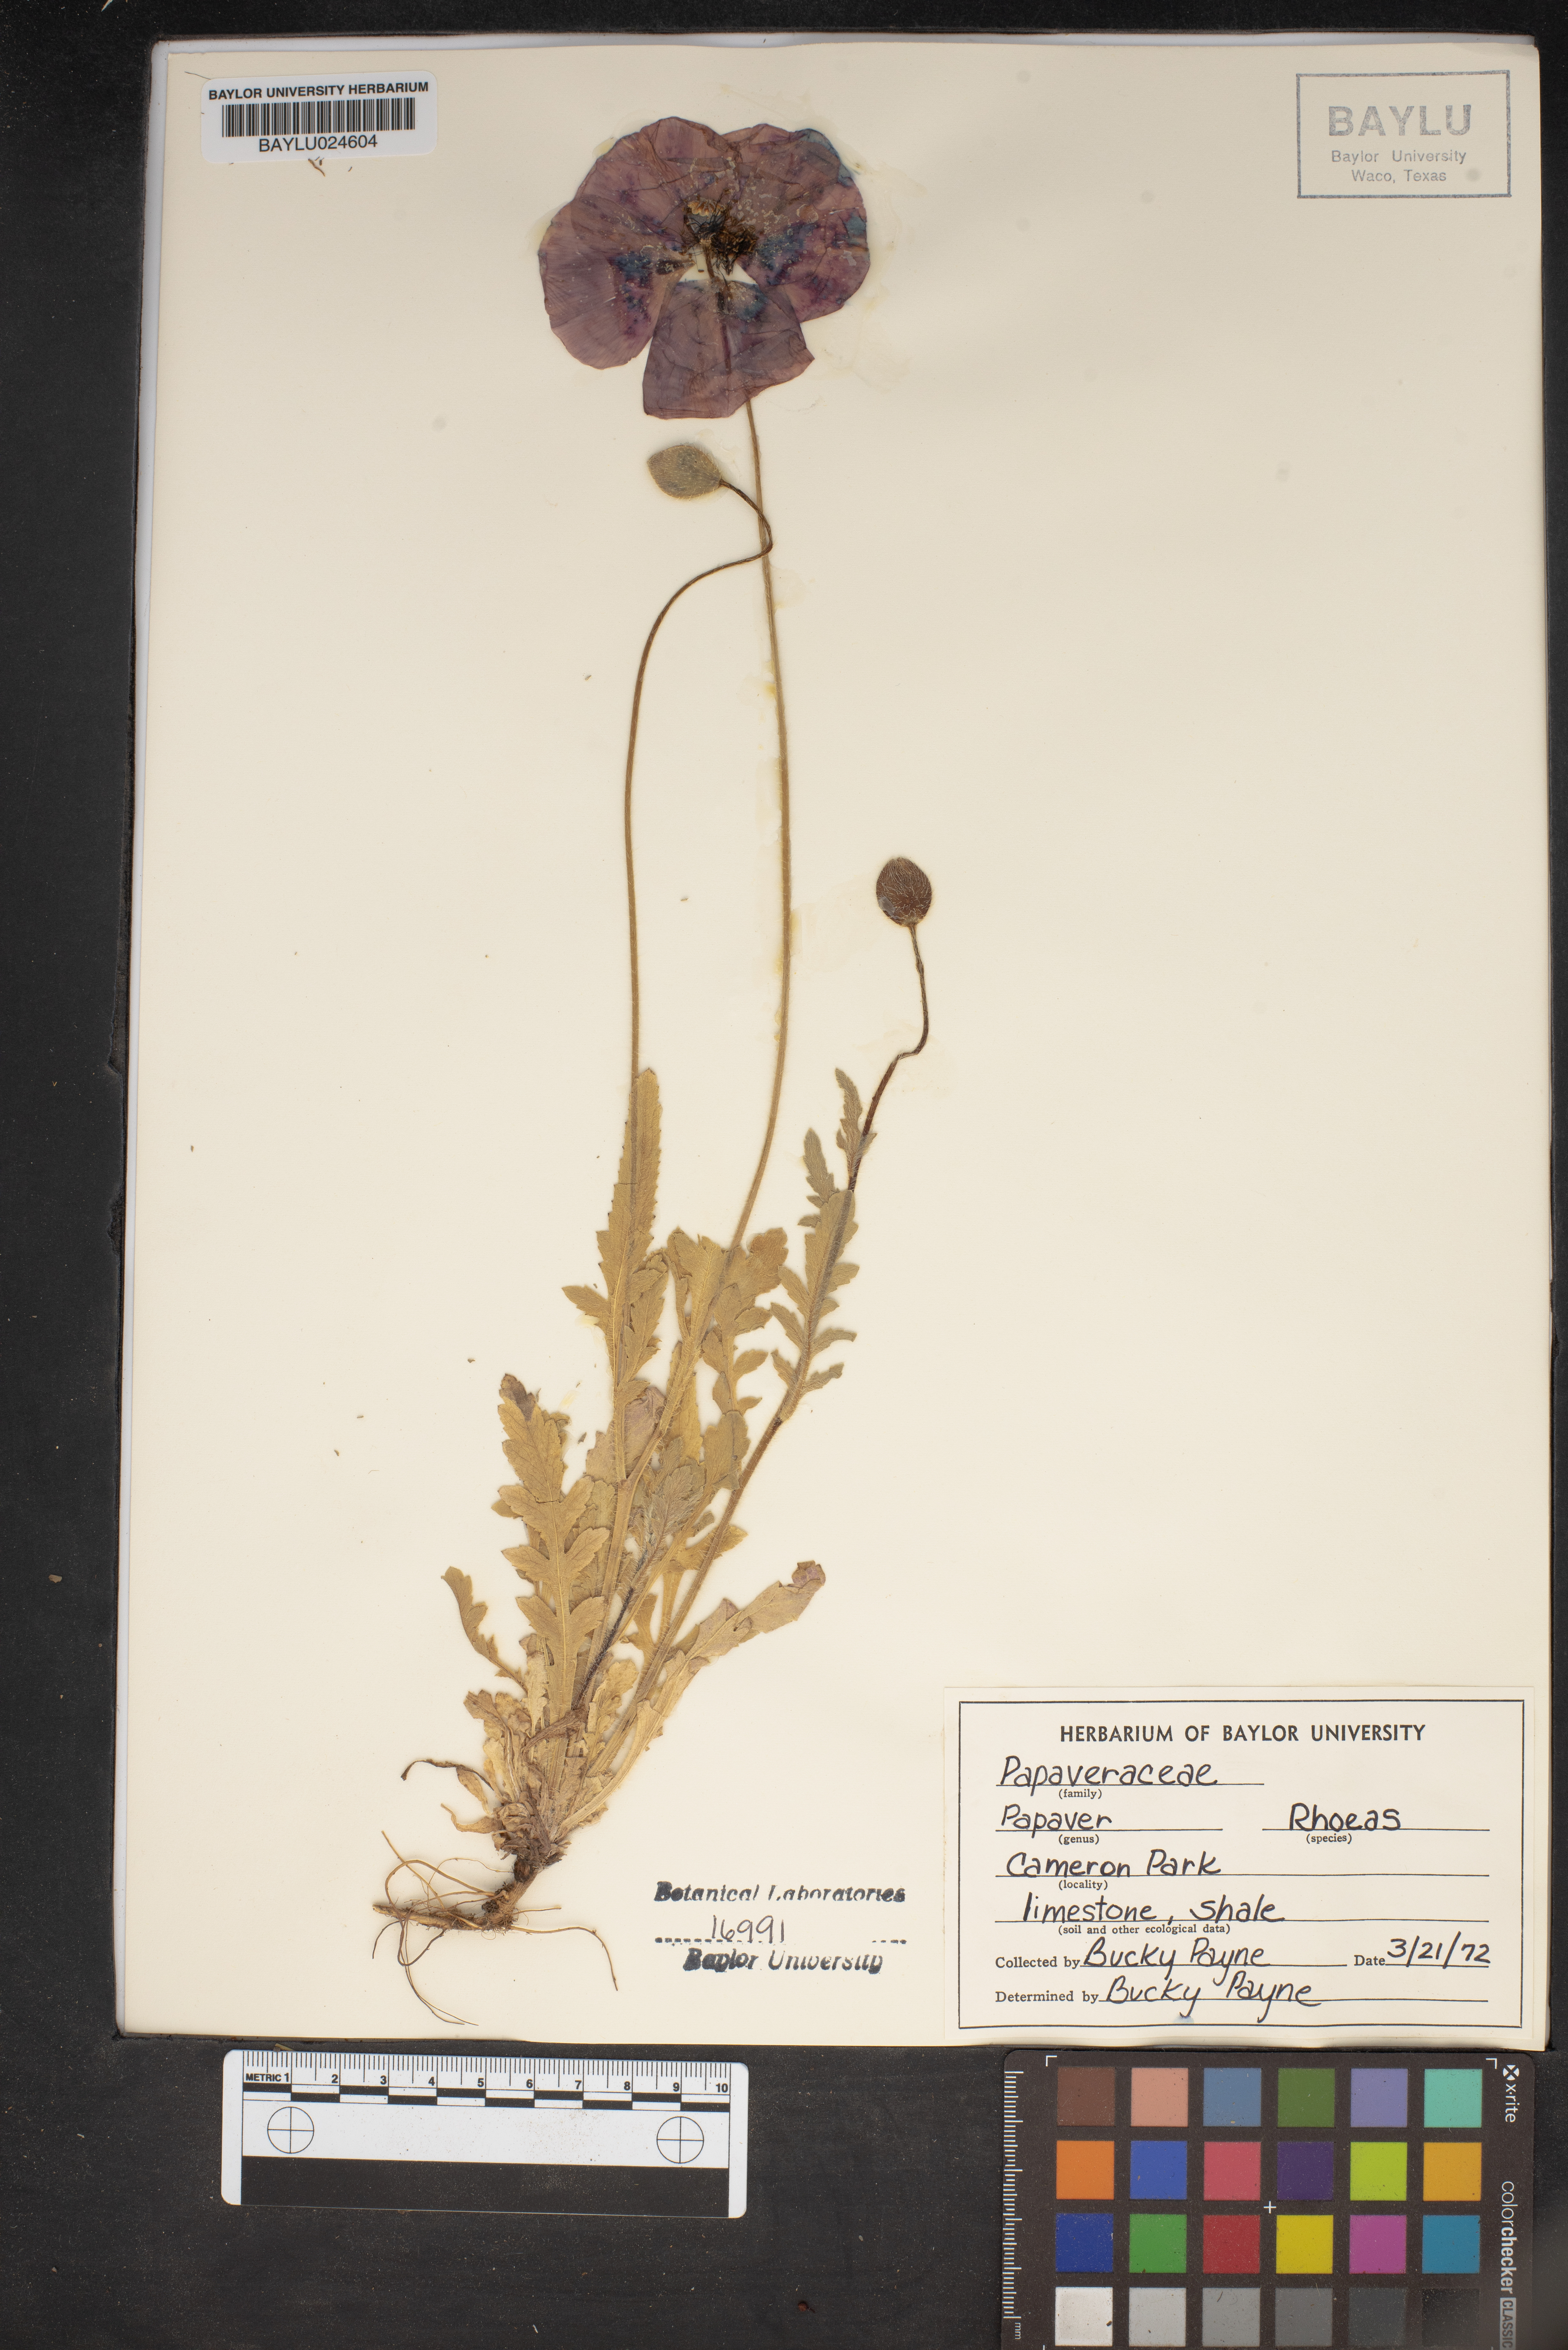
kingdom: Plantae
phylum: Tracheophyta
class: Magnoliopsida
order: Ranunculales
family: Papaveraceae
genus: Papaver
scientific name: Papaver rhoeas
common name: Corn poppy
